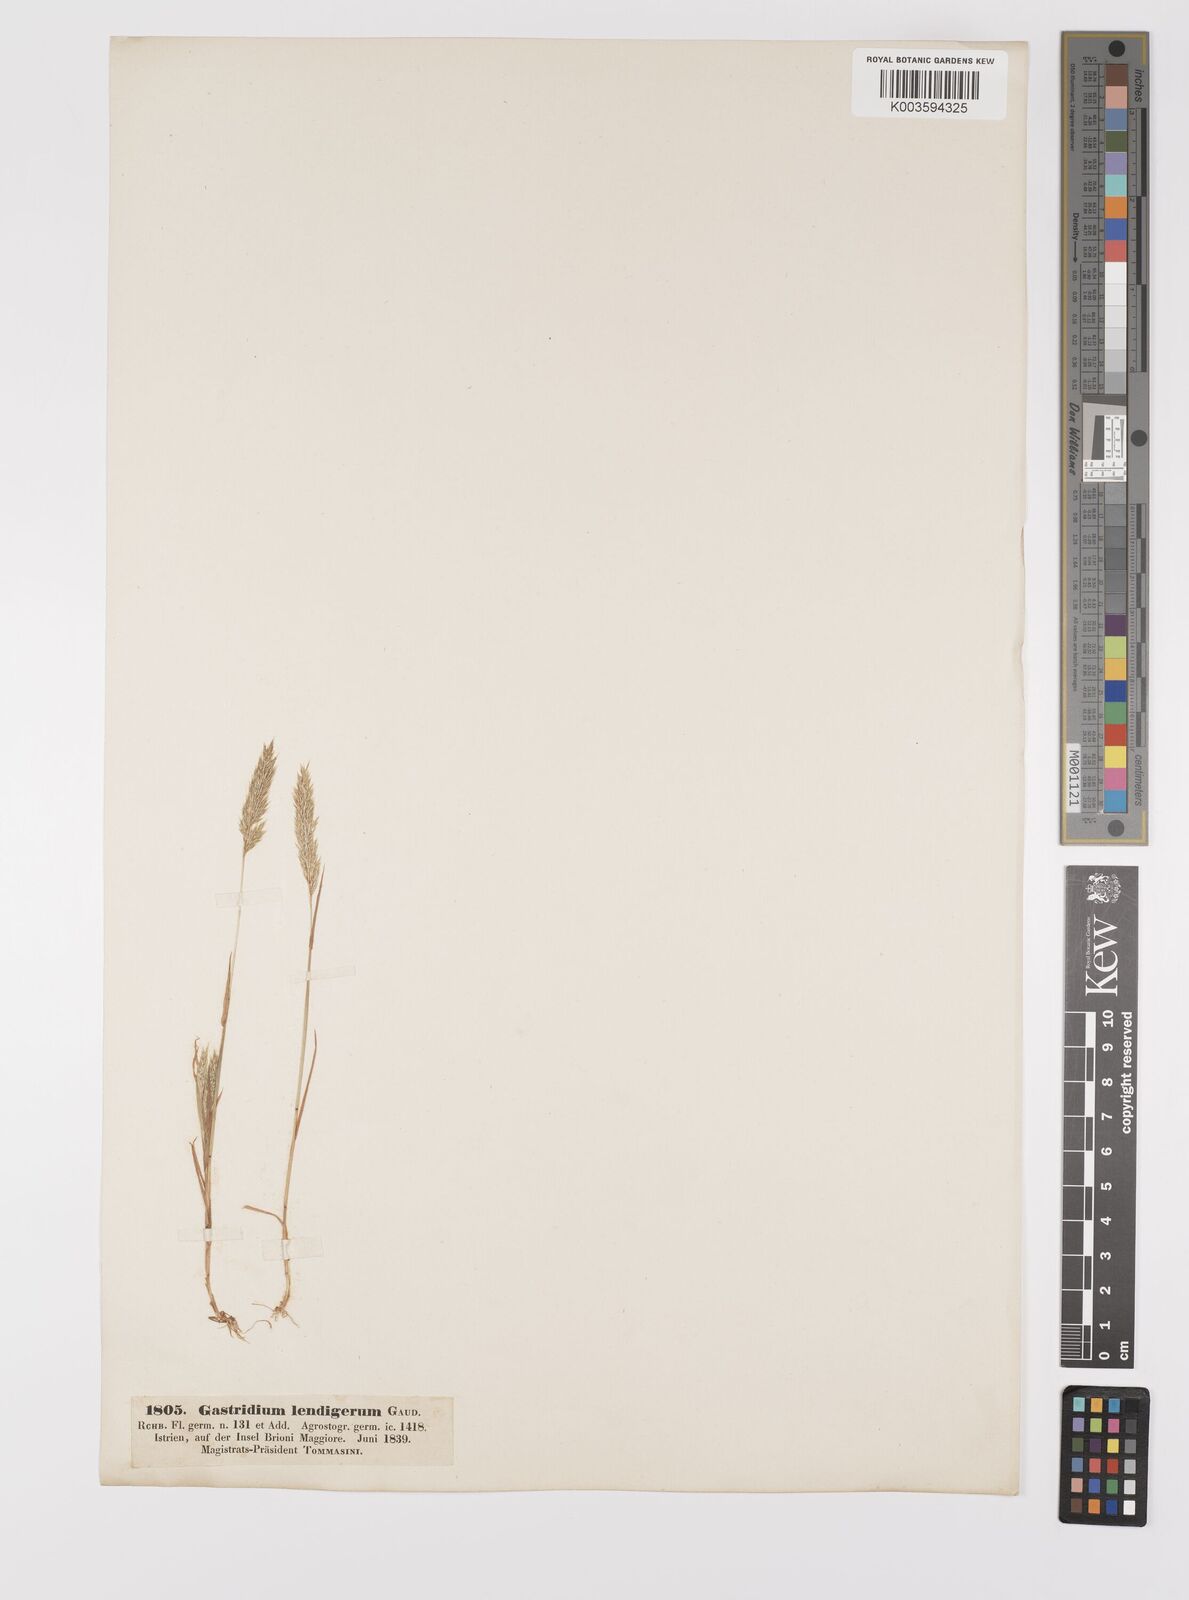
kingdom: Plantae
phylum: Tracheophyta
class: Liliopsida
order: Poales
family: Poaceae
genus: Gastridium
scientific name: Gastridium ventricosum
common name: Nit-grass
